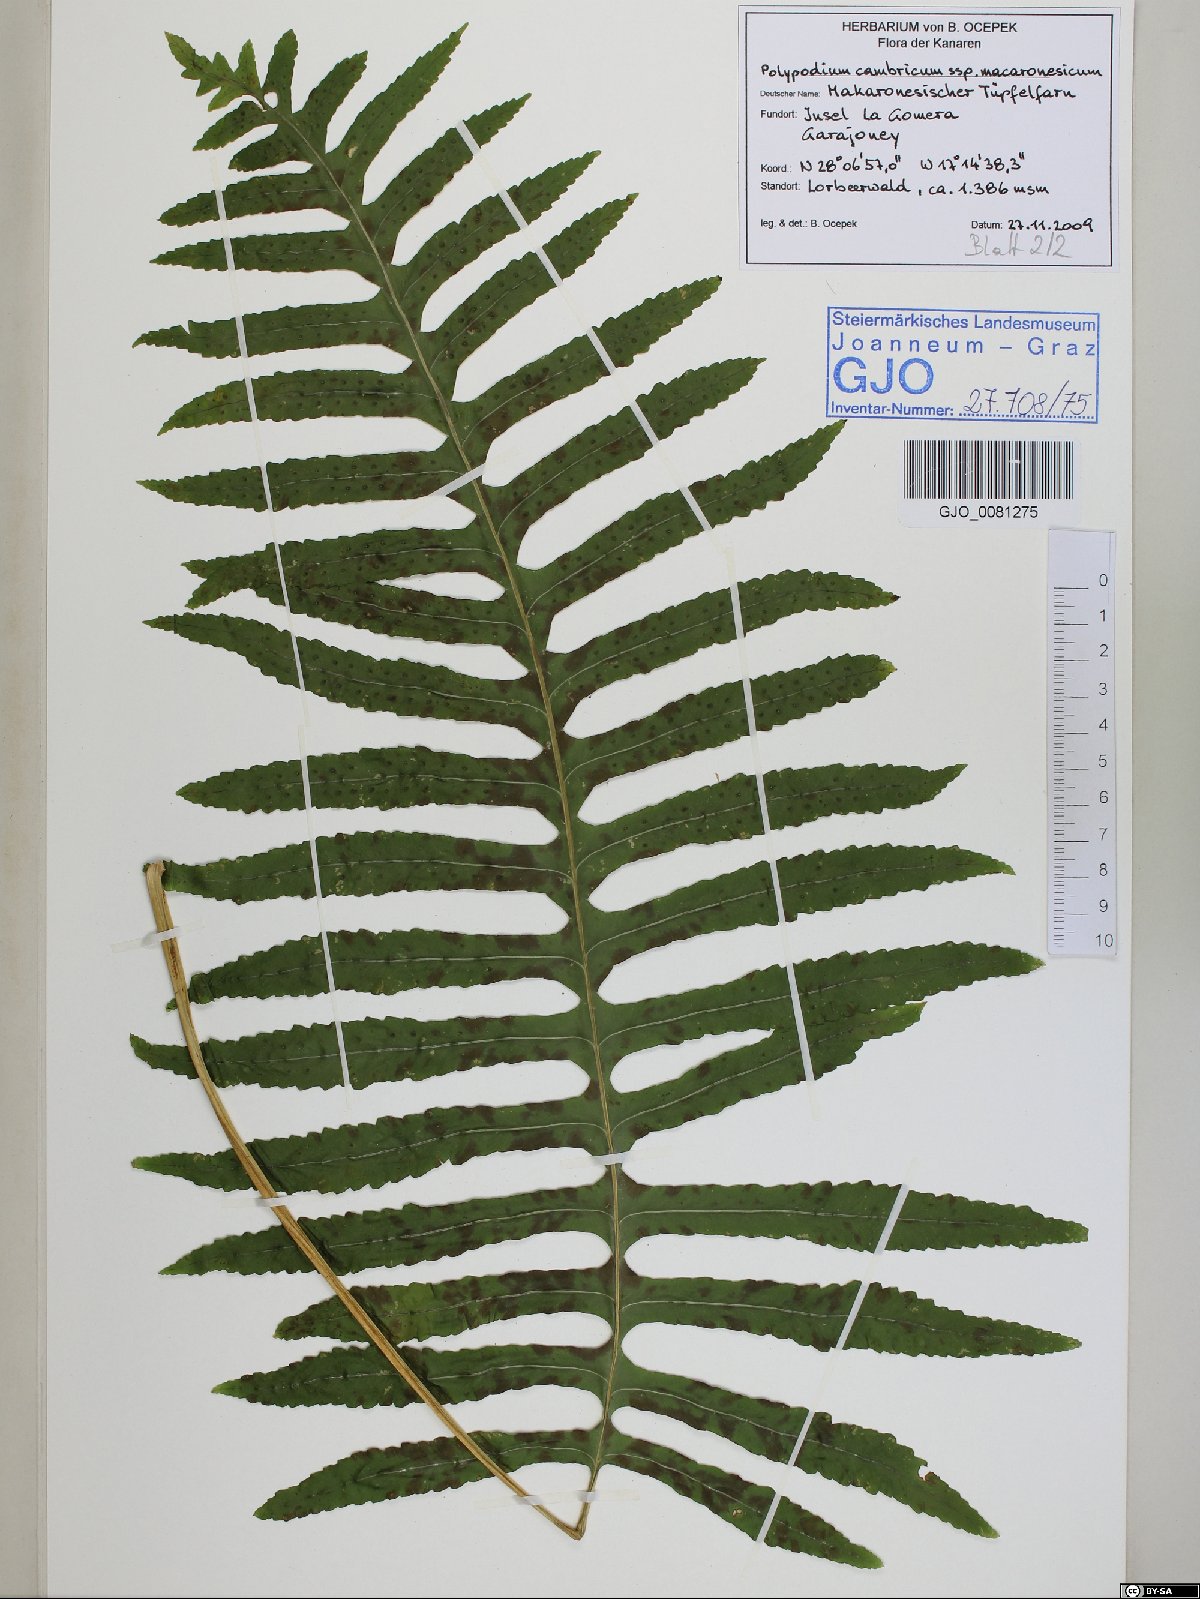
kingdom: Plantae
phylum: Tracheophyta
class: Polypodiopsida
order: Polypodiales
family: Polypodiaceae
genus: Polypodium
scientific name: Polypodium macaronesicum
